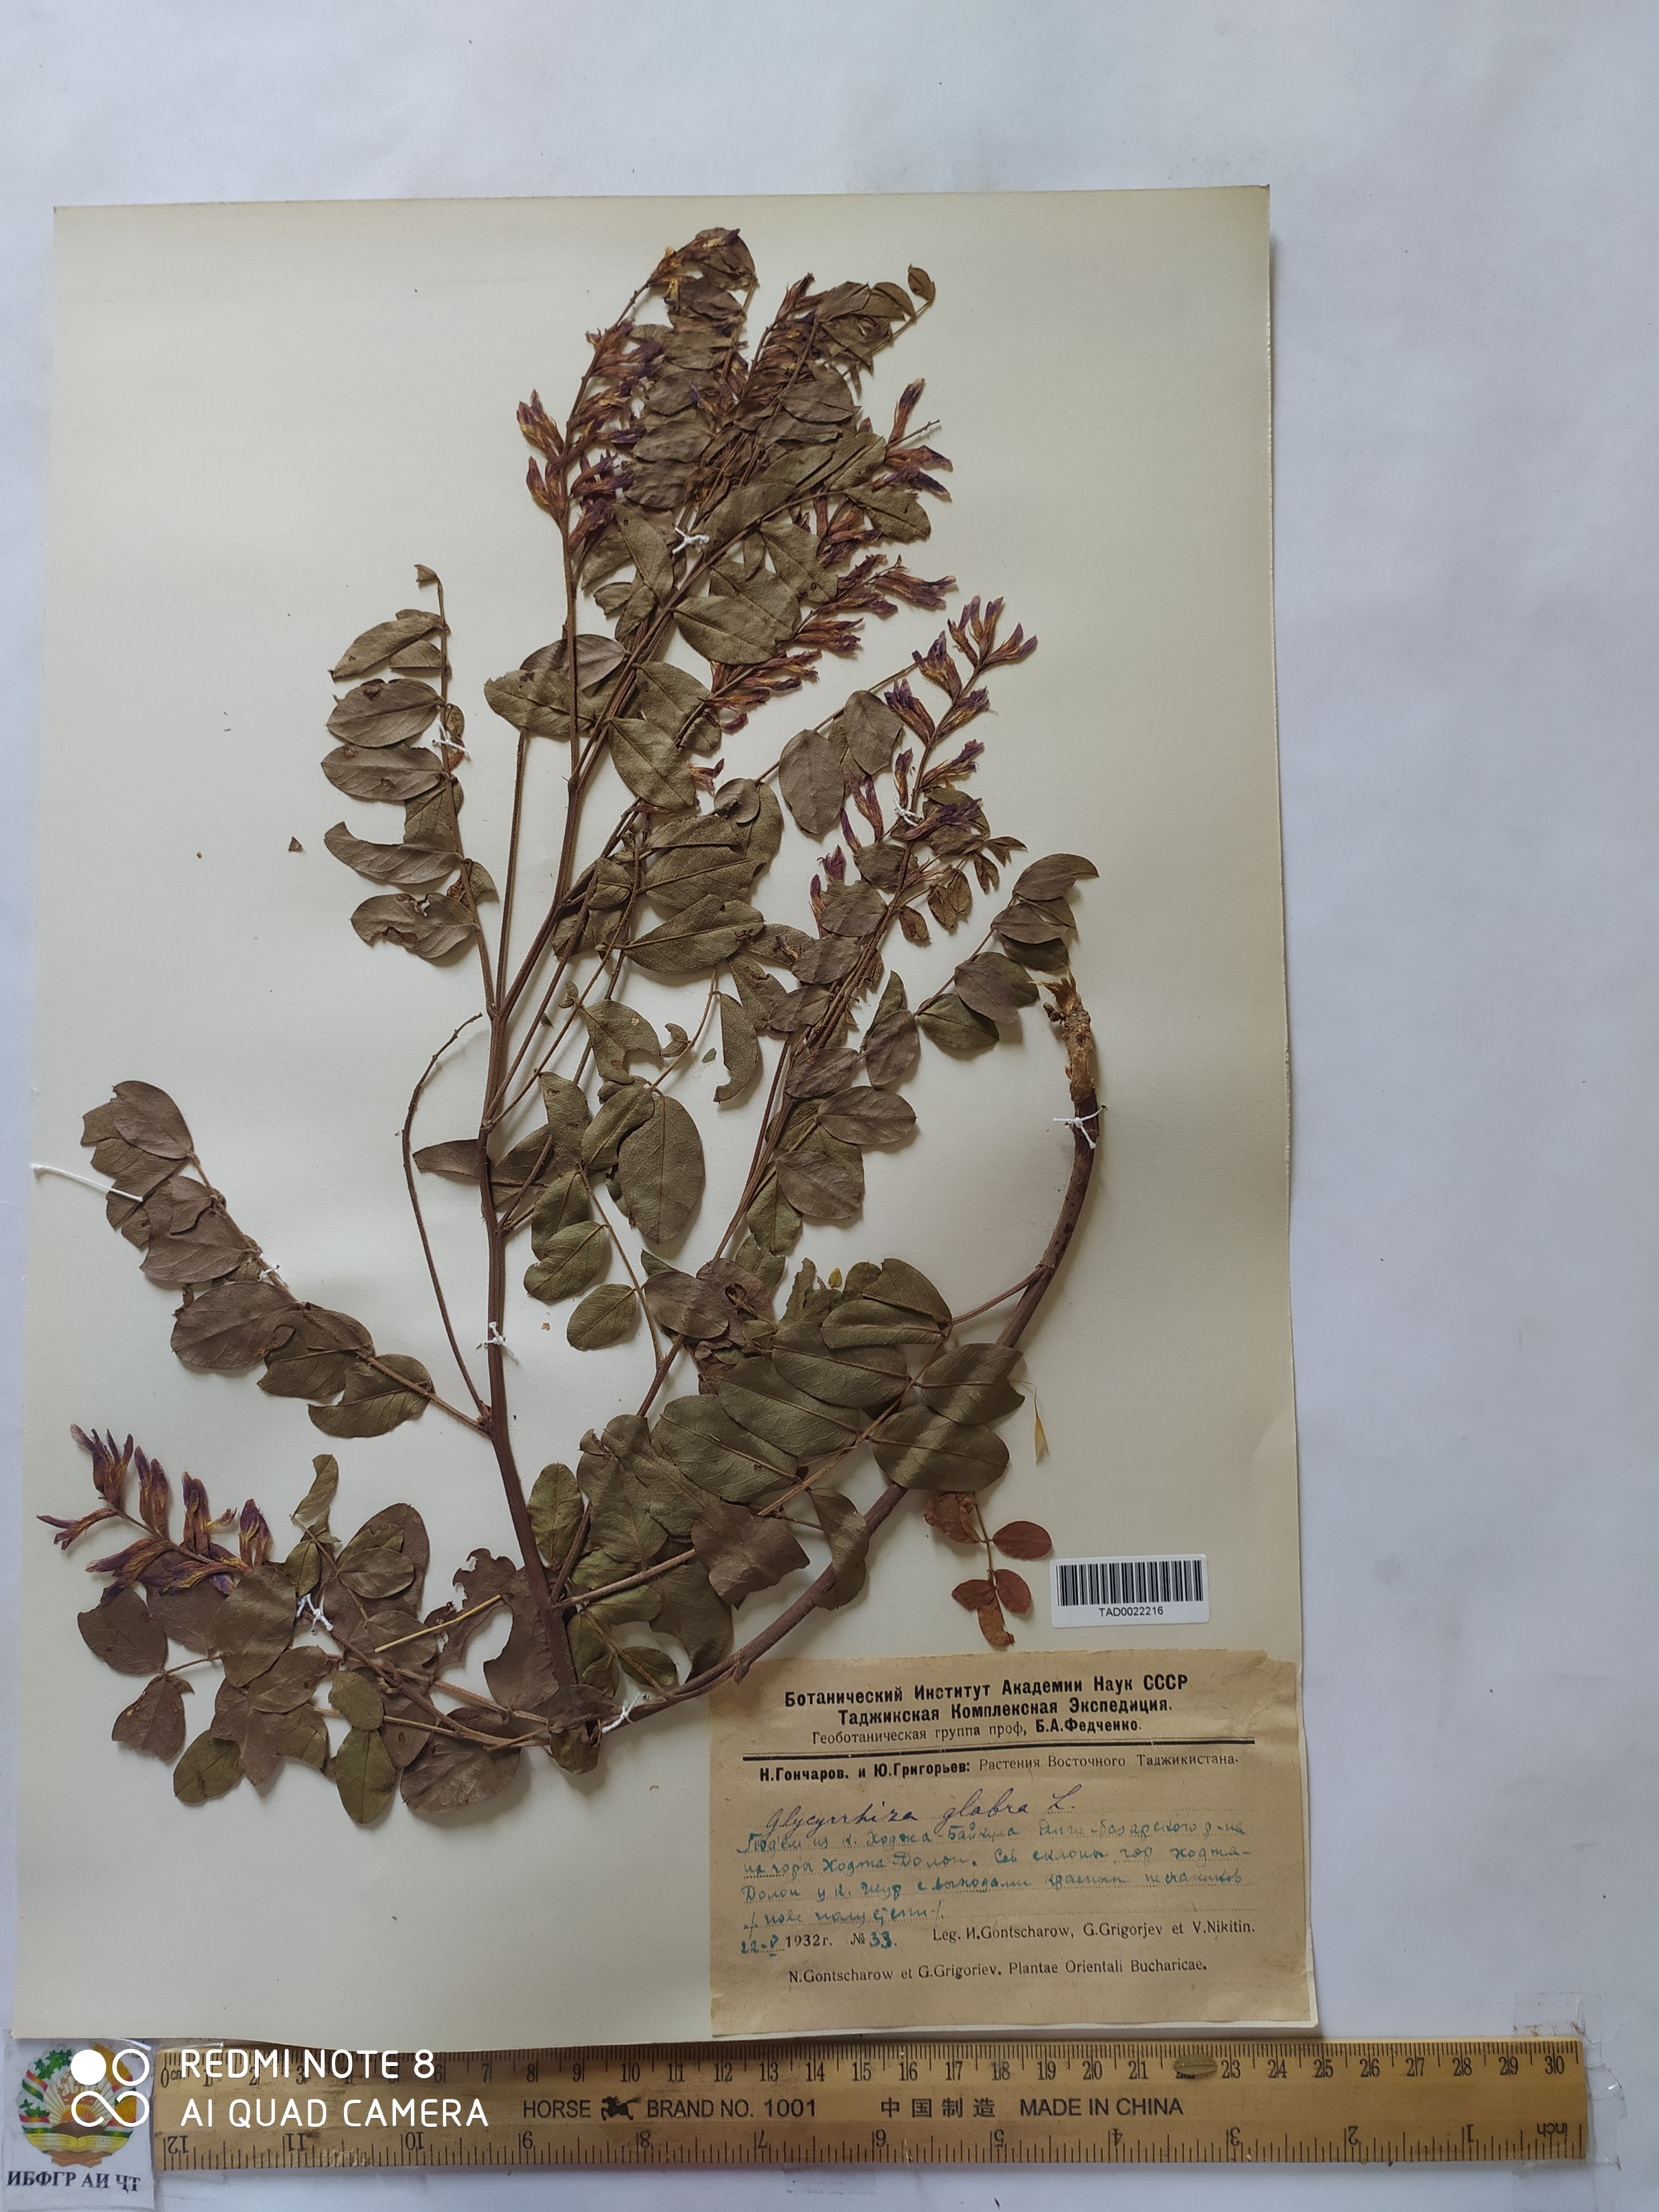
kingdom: Plantae
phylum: Tracheophyta
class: Magnoliopsida
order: Fabales
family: Fabaceae
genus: Glycyrrhiza
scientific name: Glycyrrhiza glabra
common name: Liquorice
